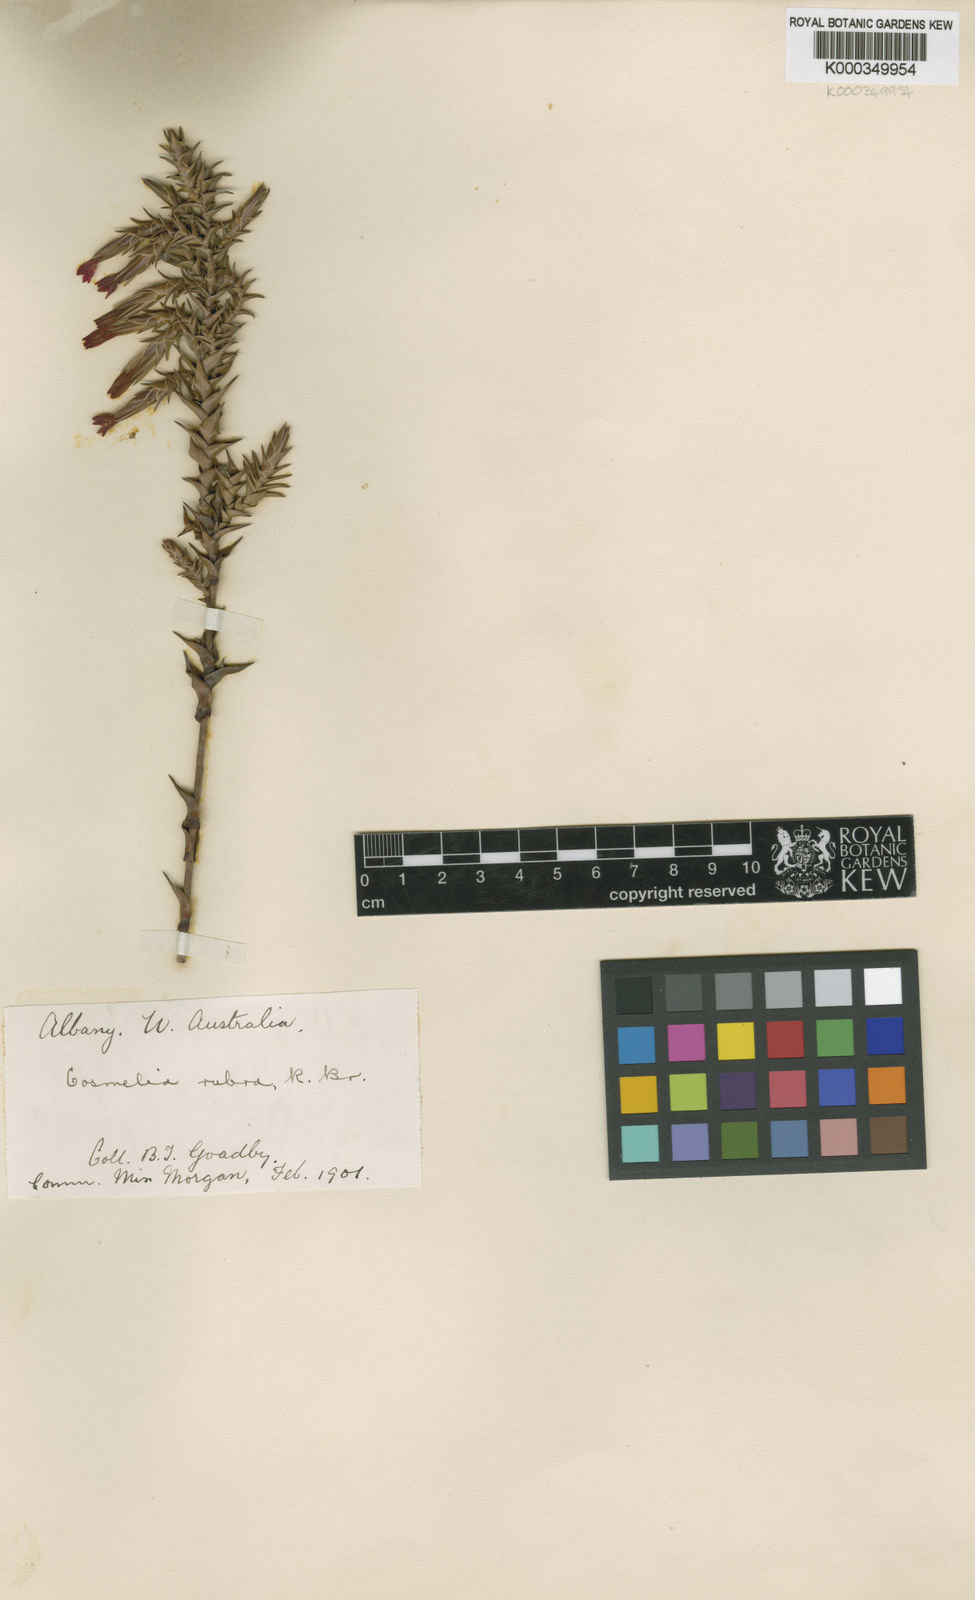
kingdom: Plantae
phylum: Tracheophyta
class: Magnoliopsida
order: Ericales
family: Ericaceae
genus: Cosmelia
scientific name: Cosmelia rubra
